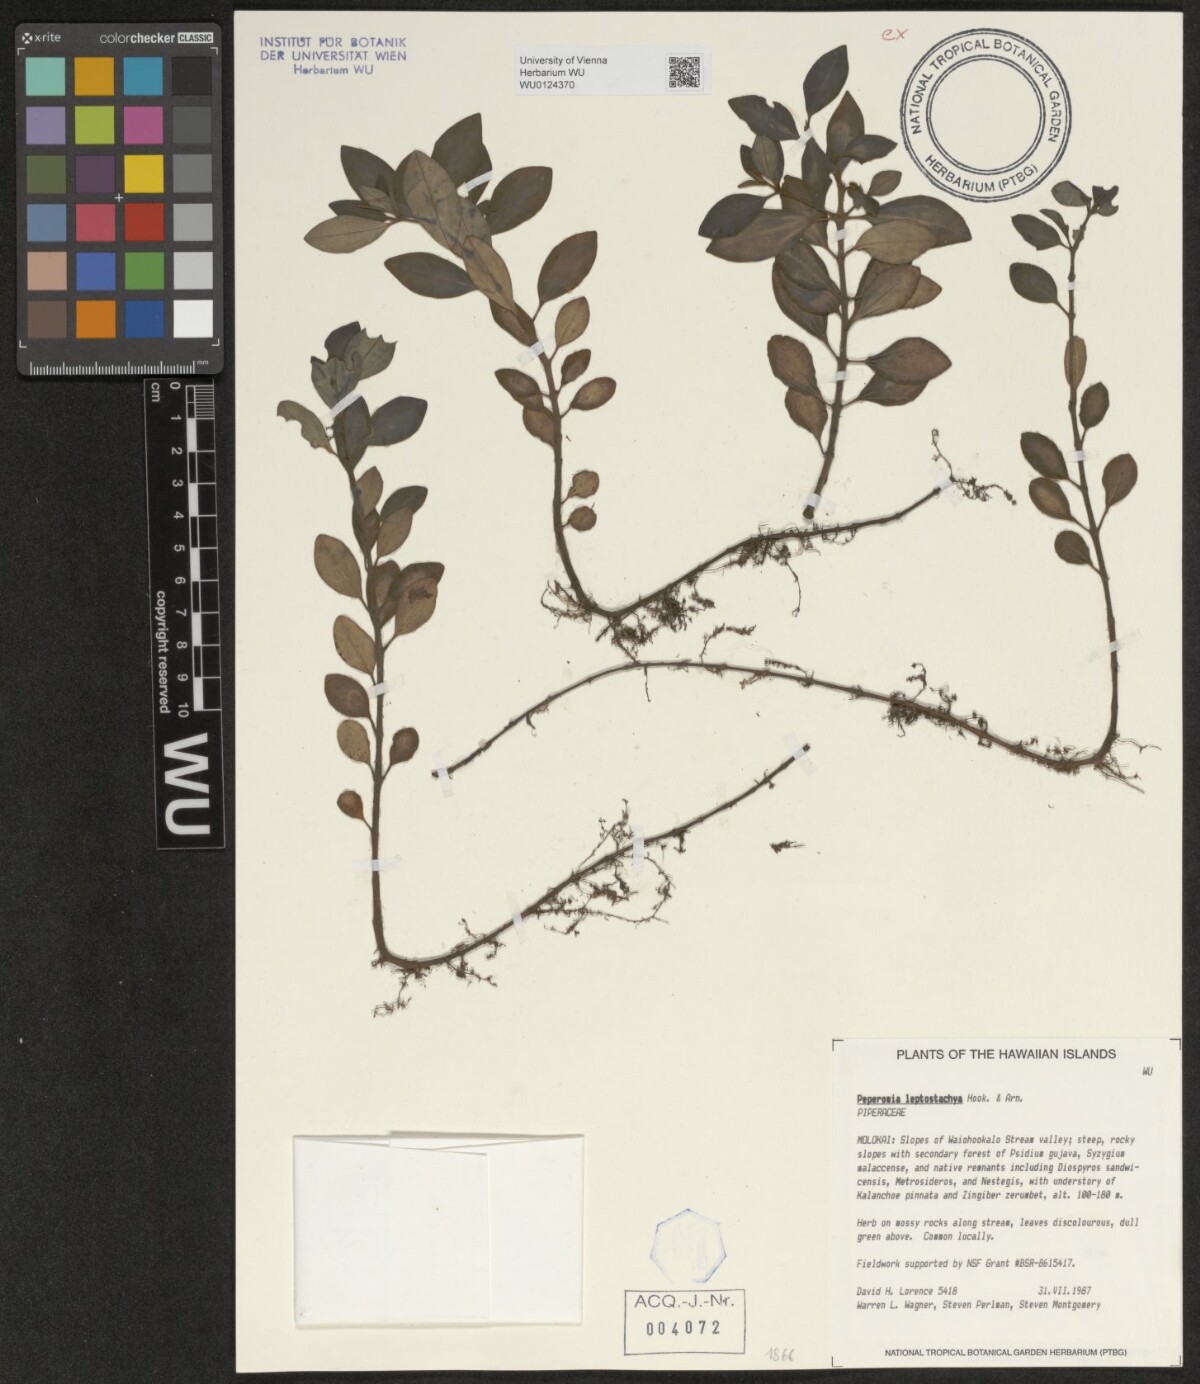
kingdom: Plantae
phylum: Tracheophyta
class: Magnoliopsida
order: Piperales
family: Piperaceae
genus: Peperomia
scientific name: Peperomia leptostachya
